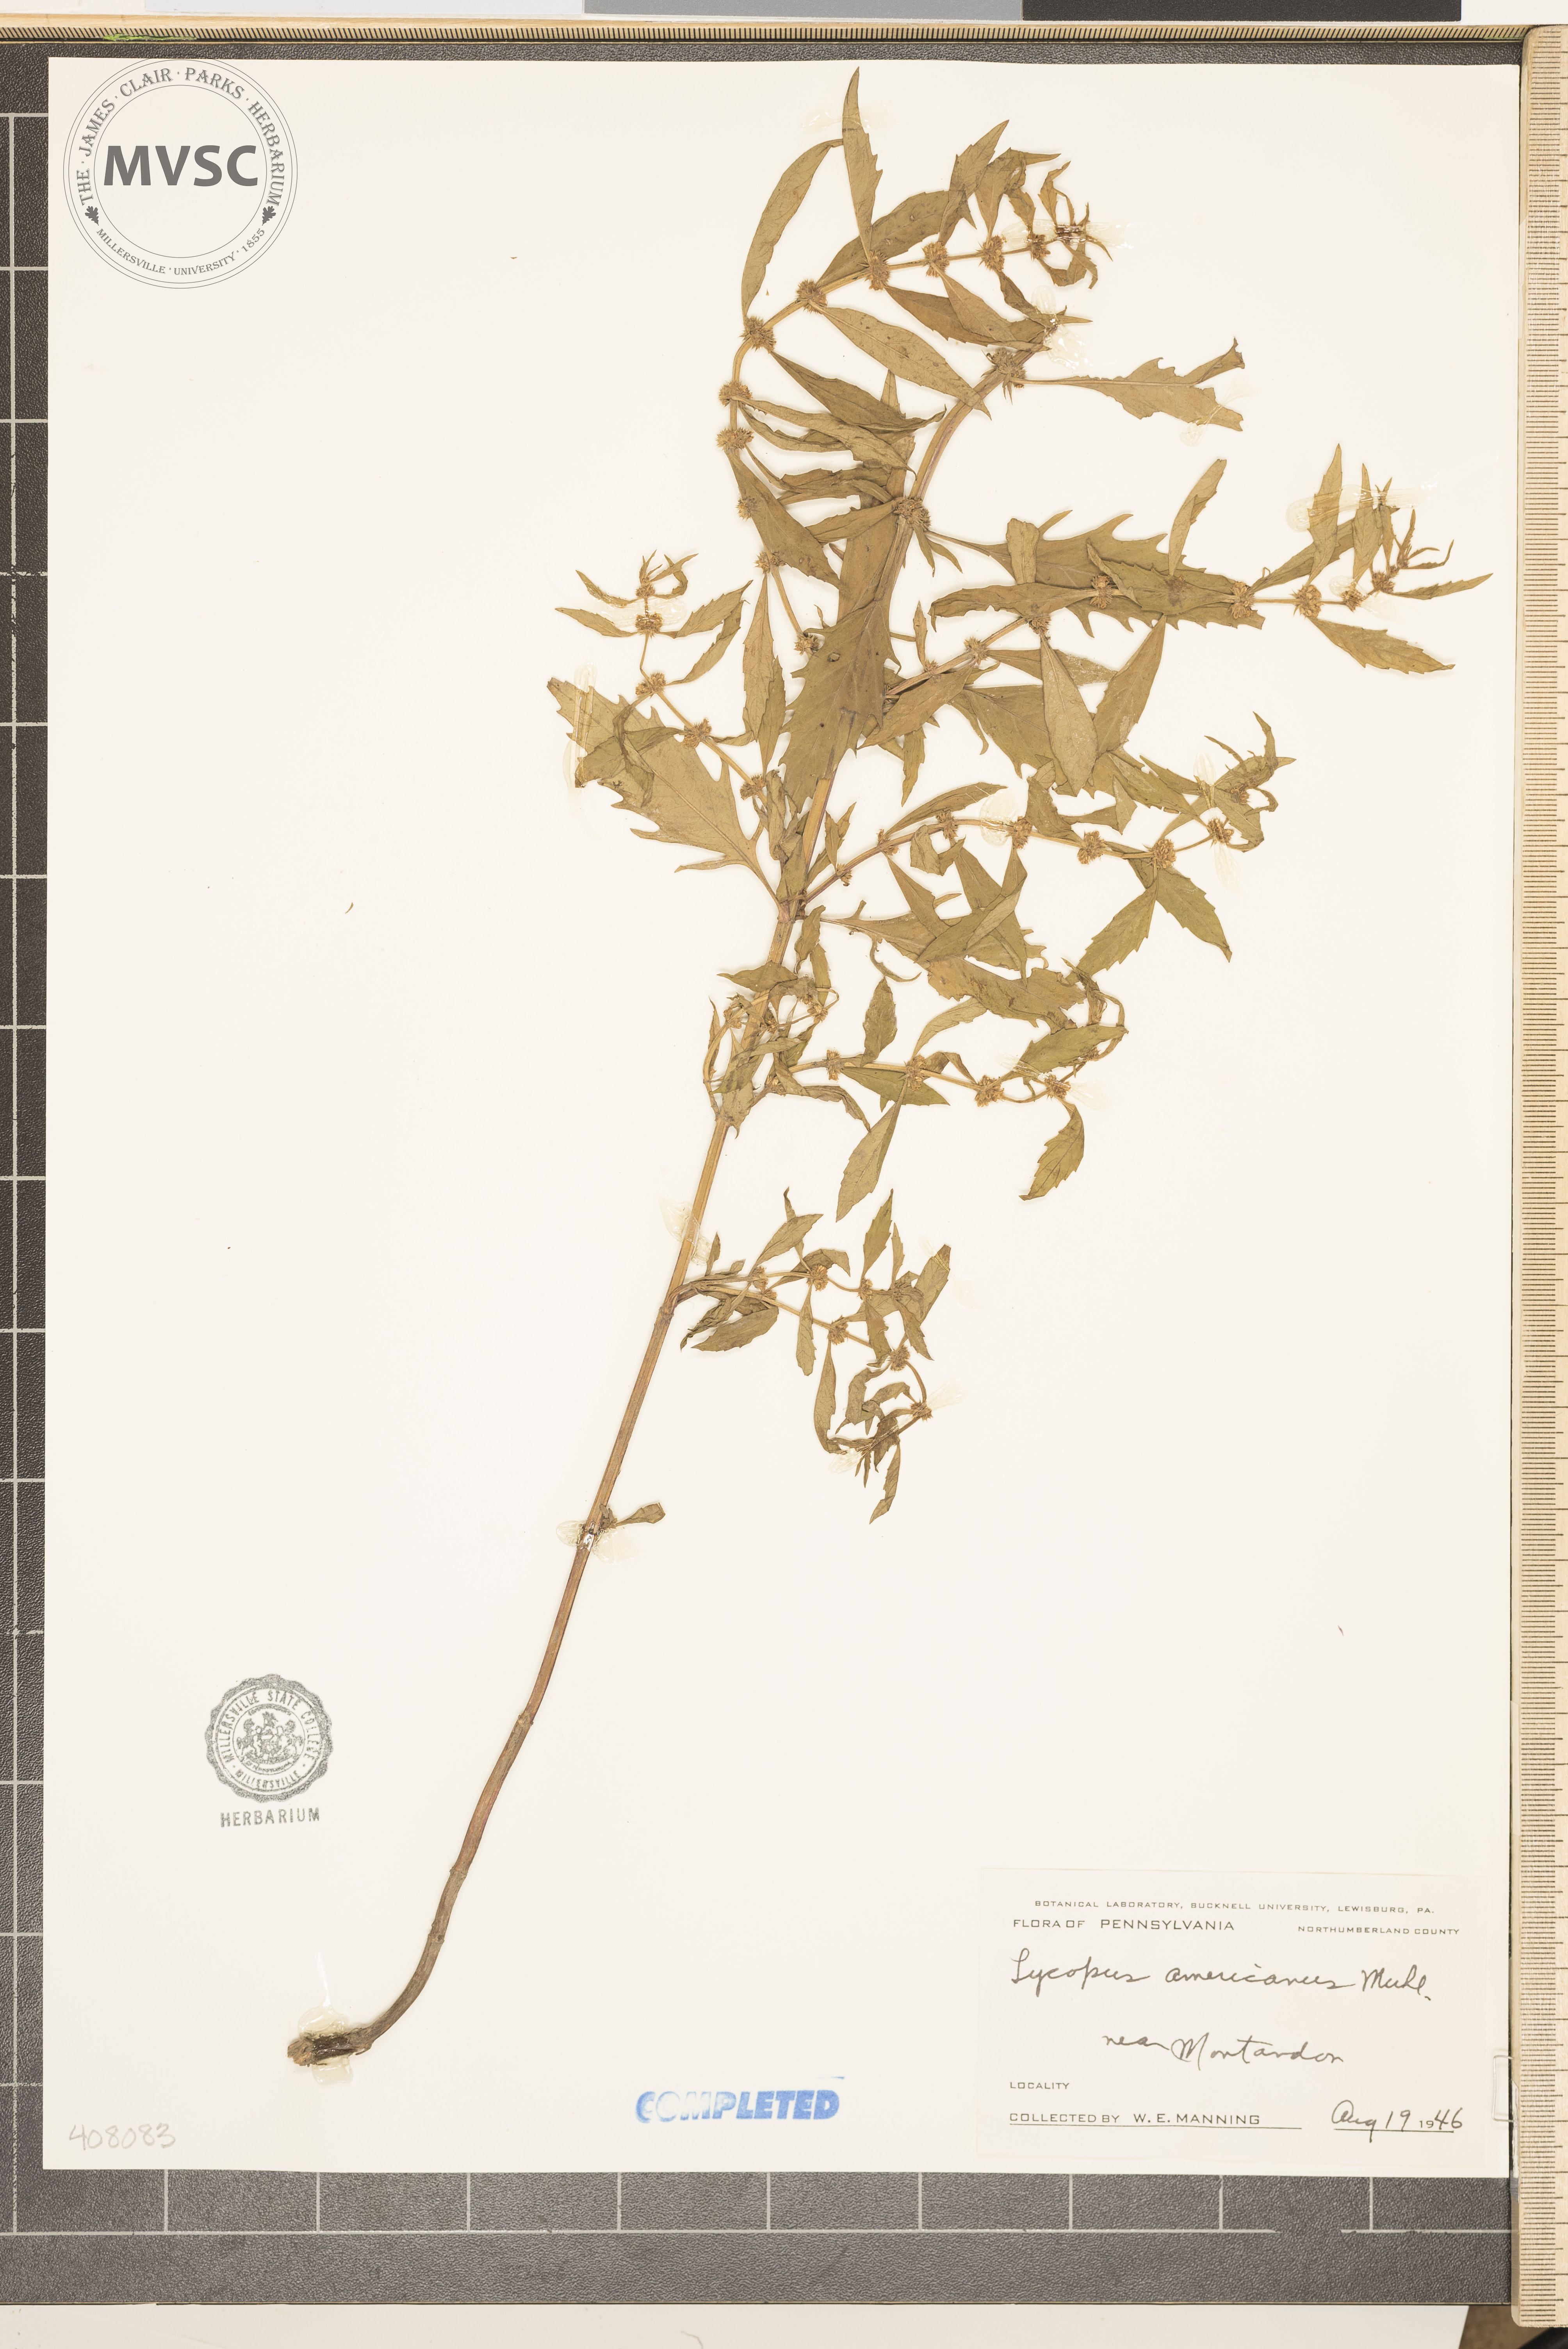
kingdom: Plantae
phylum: Tracheophyta
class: Magnoliopsida
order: Lamiales
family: Lamiaceae
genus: Lycopus
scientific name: Lycopus americanus
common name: American bugleweed
